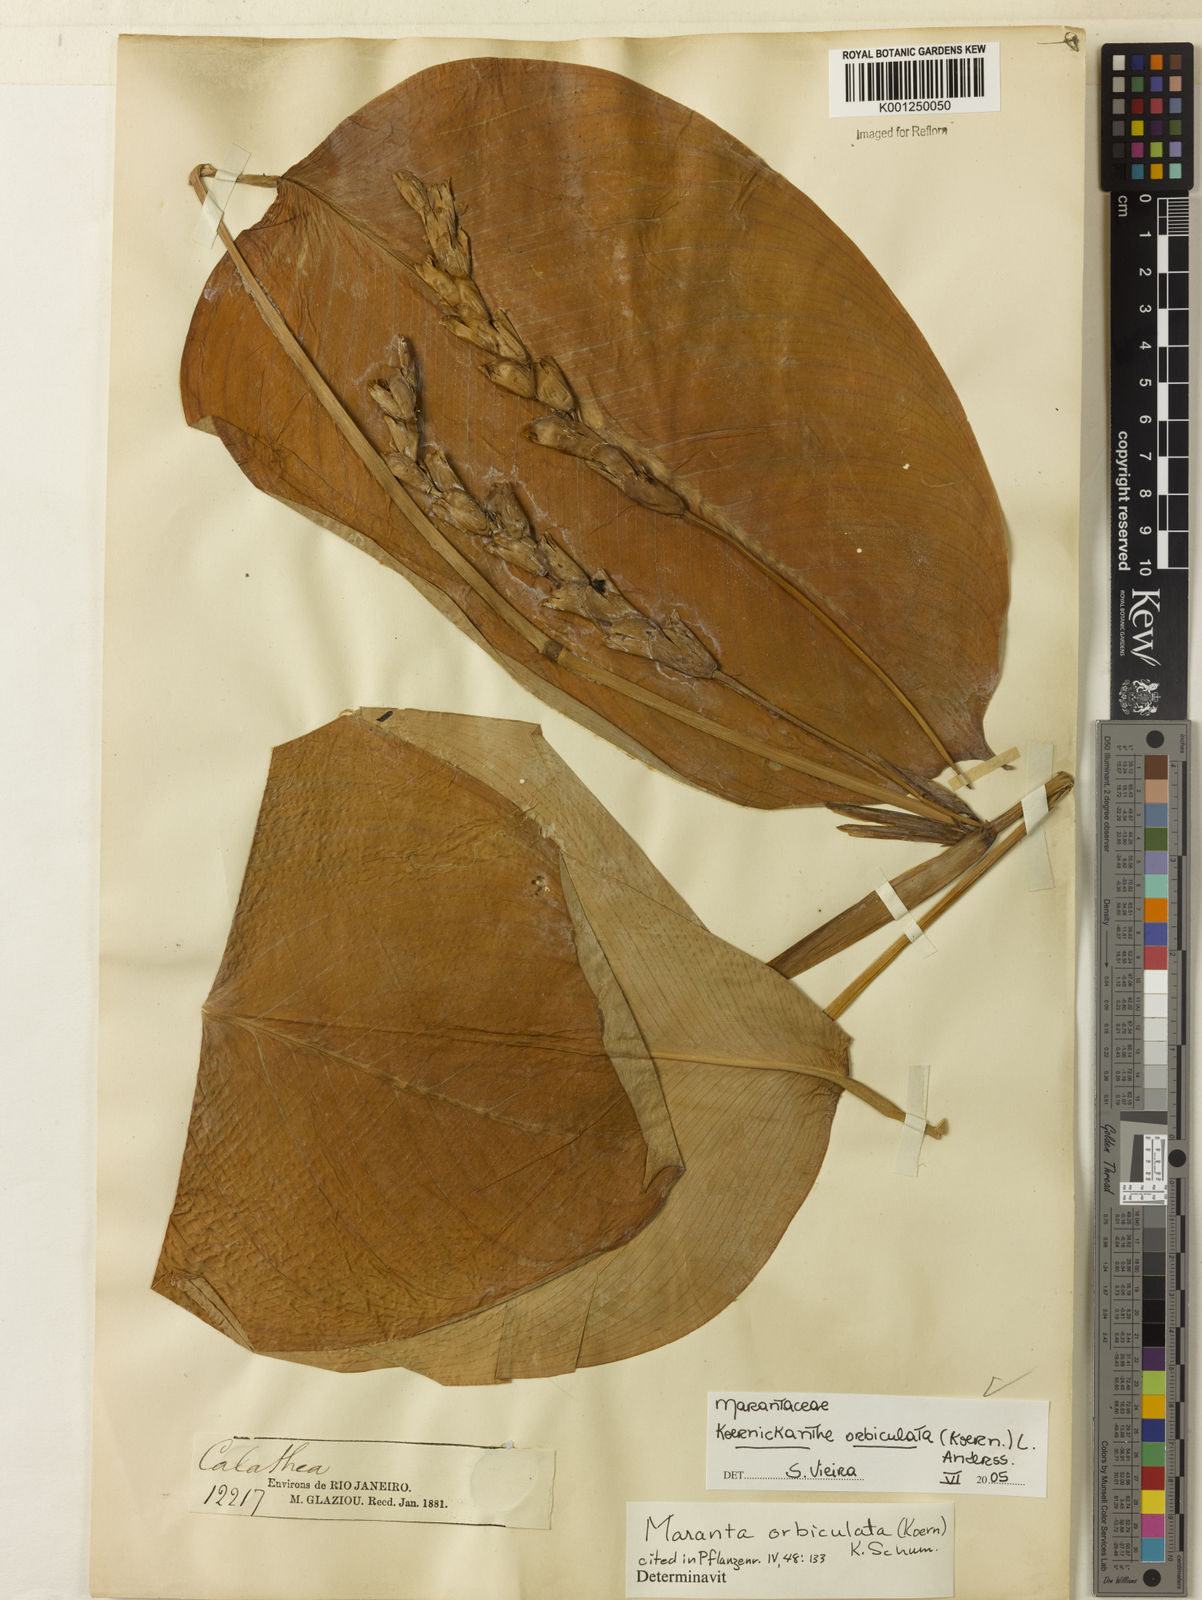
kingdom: Plantae
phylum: Tracheophyta
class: Liliopsida
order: Zingiberales
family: Marantaceae
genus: Koernickanthe
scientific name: Koernickanthe orbiculata
